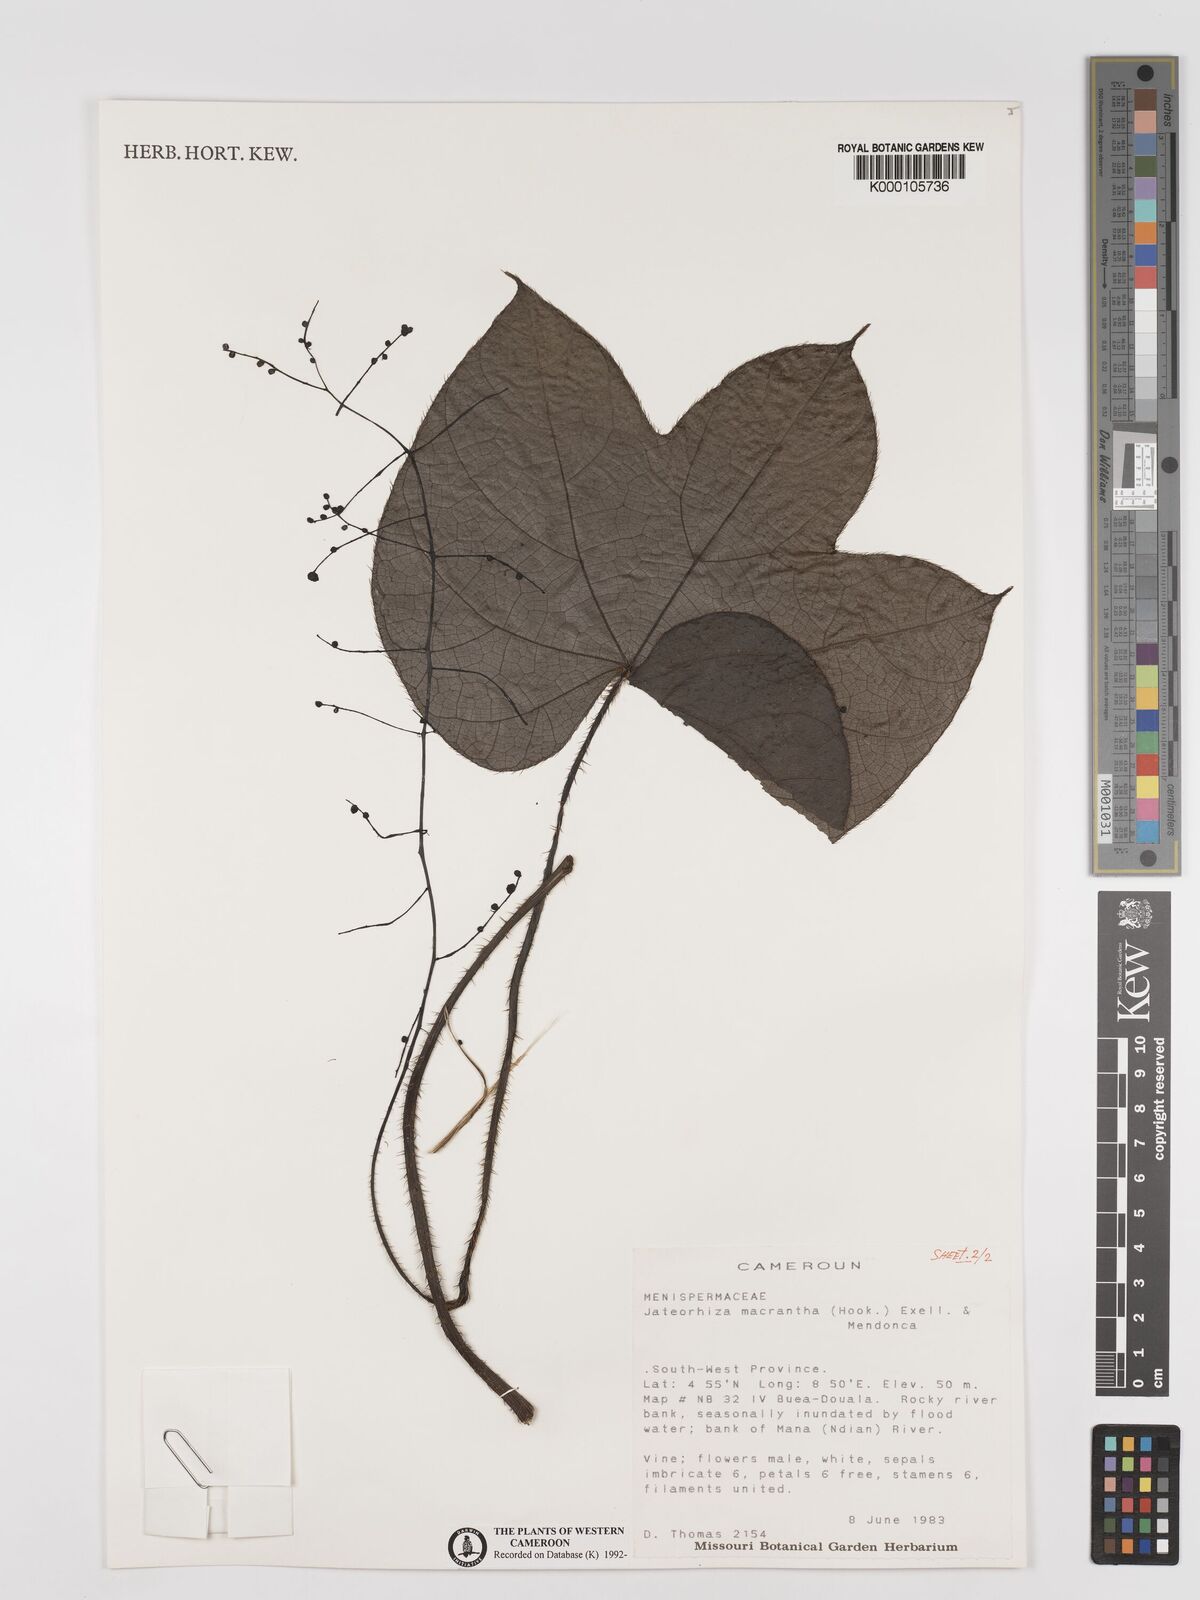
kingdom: Plantae
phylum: Tracheophyta
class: Magnoliopsida
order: Ranunculales
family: Menispermaceae
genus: Jateorhiza
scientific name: Jateorhiza
